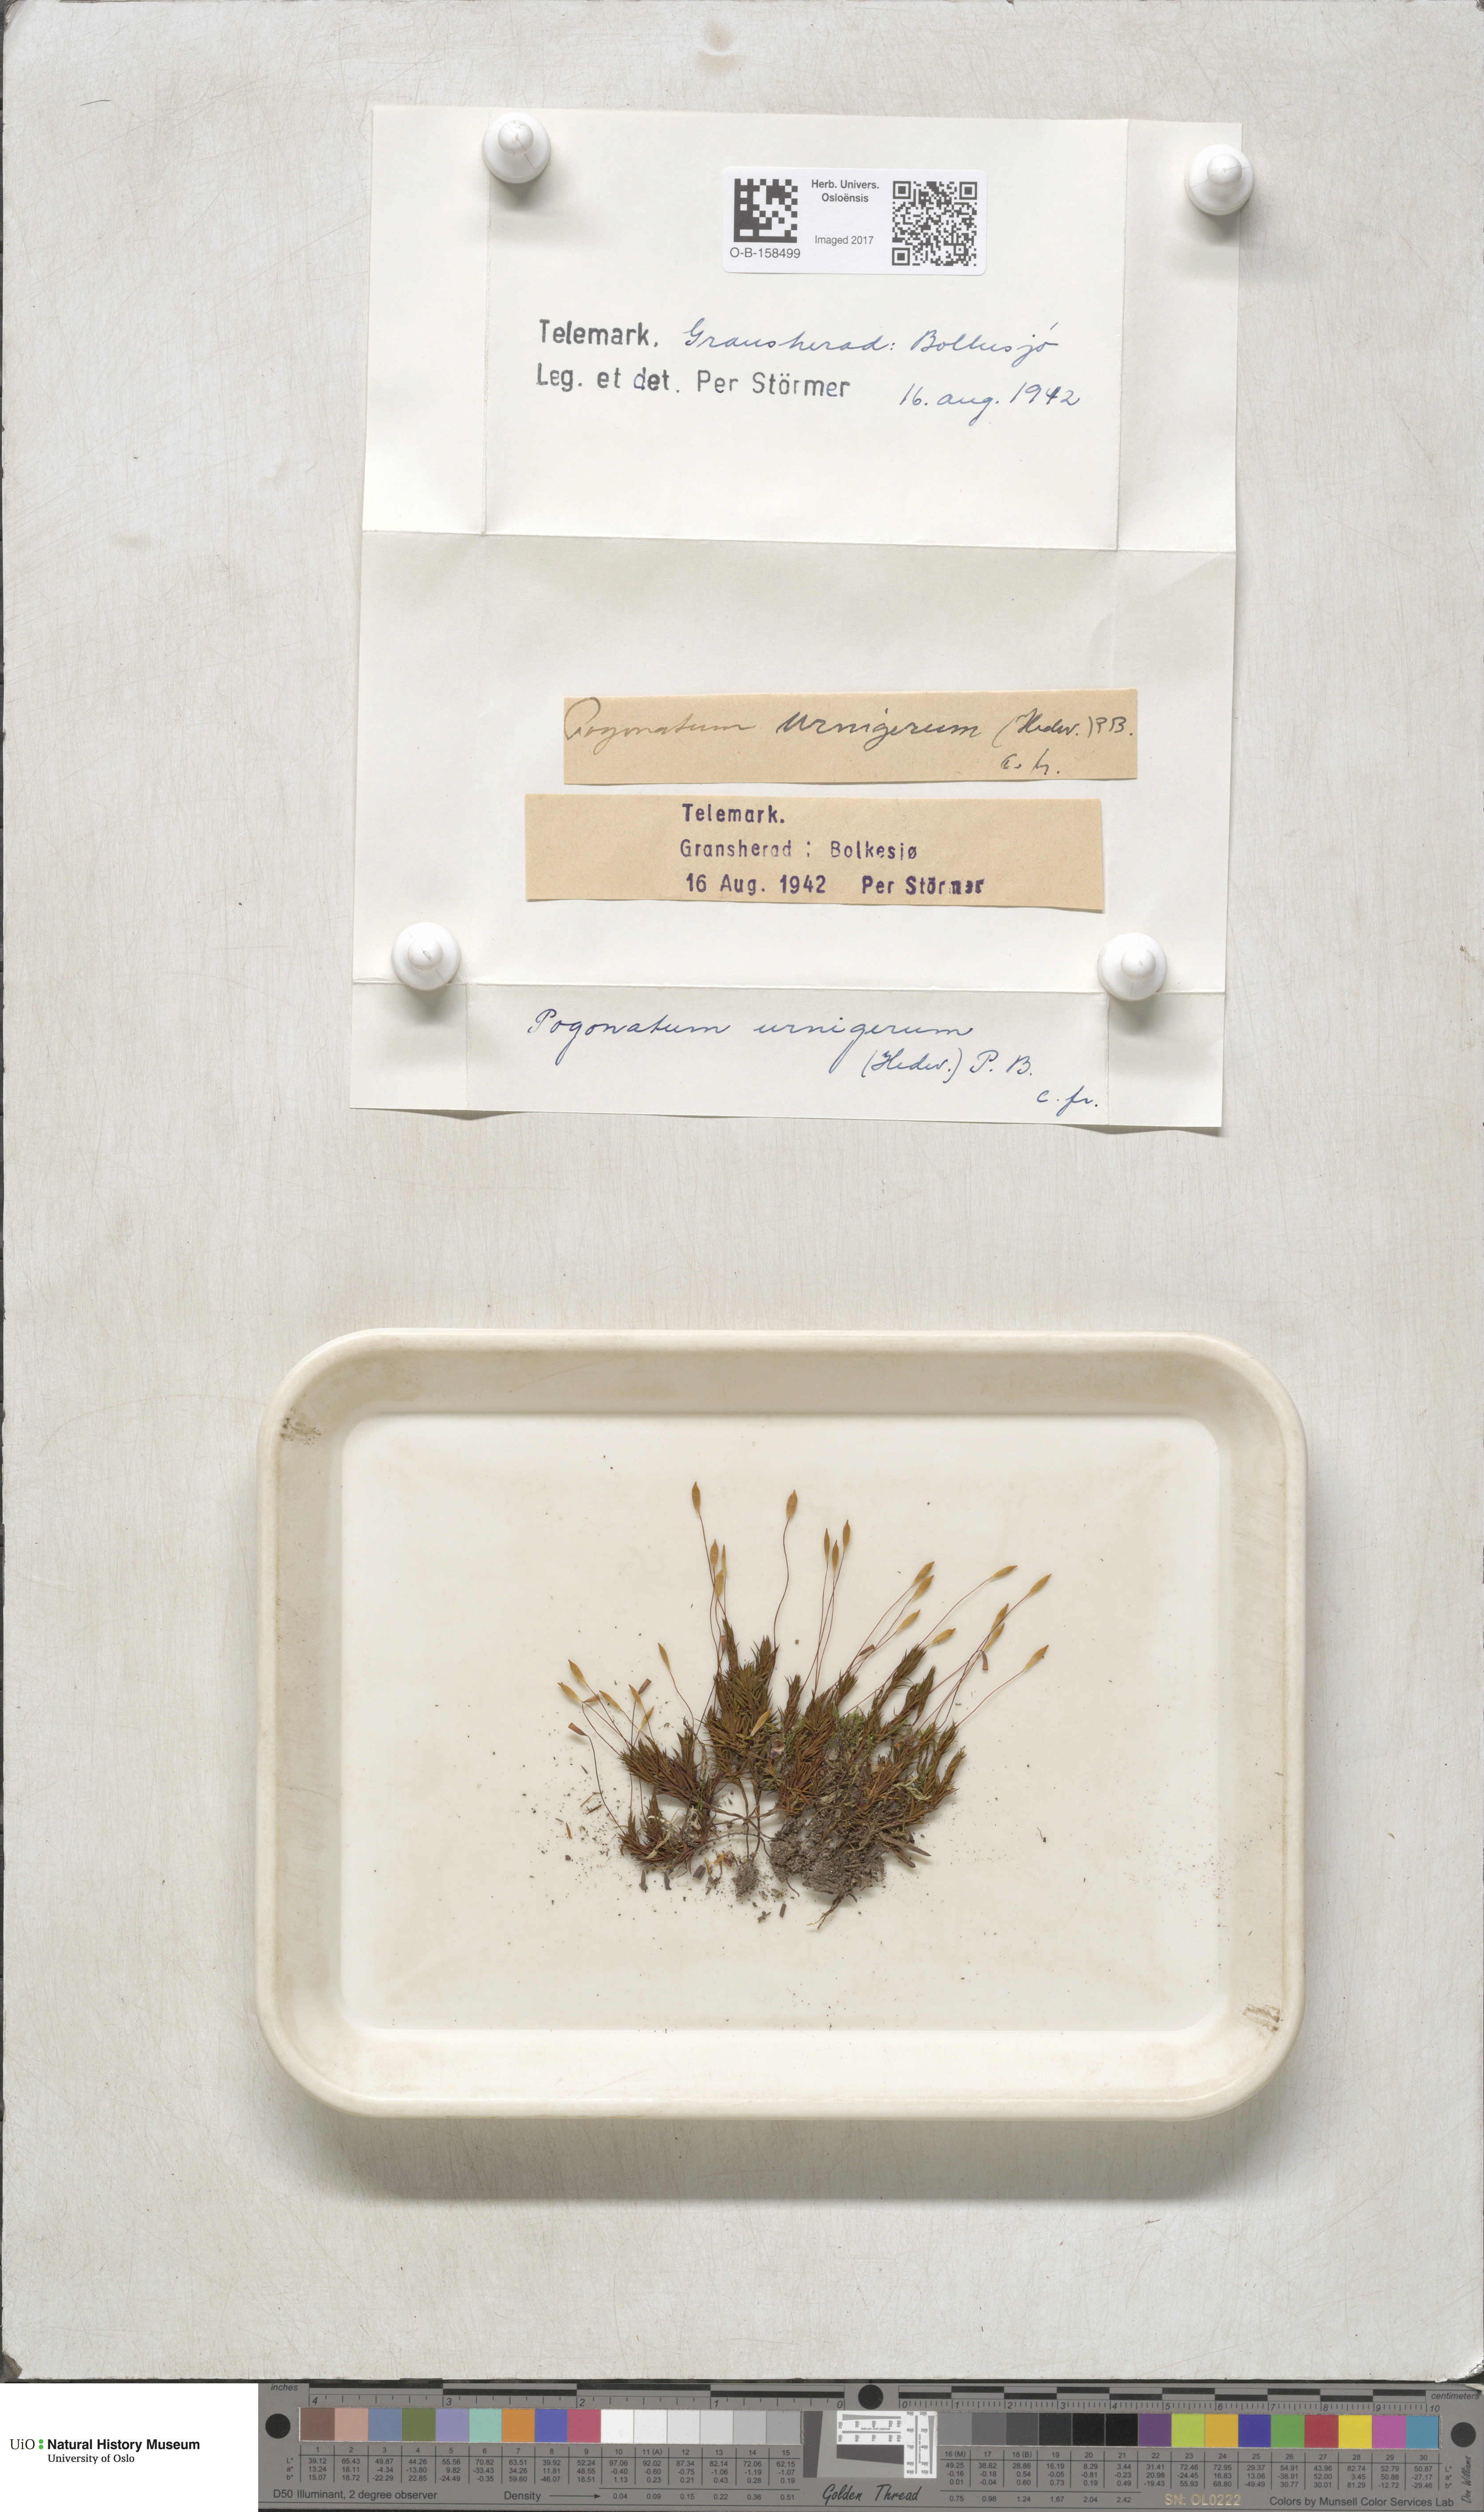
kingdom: Plantae
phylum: Bryophyta
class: Polytrichopsida
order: Polytrichales
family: Polytrichaceae
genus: Pogonatum
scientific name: Pogonatum urnigerum
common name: Urn hair moss
